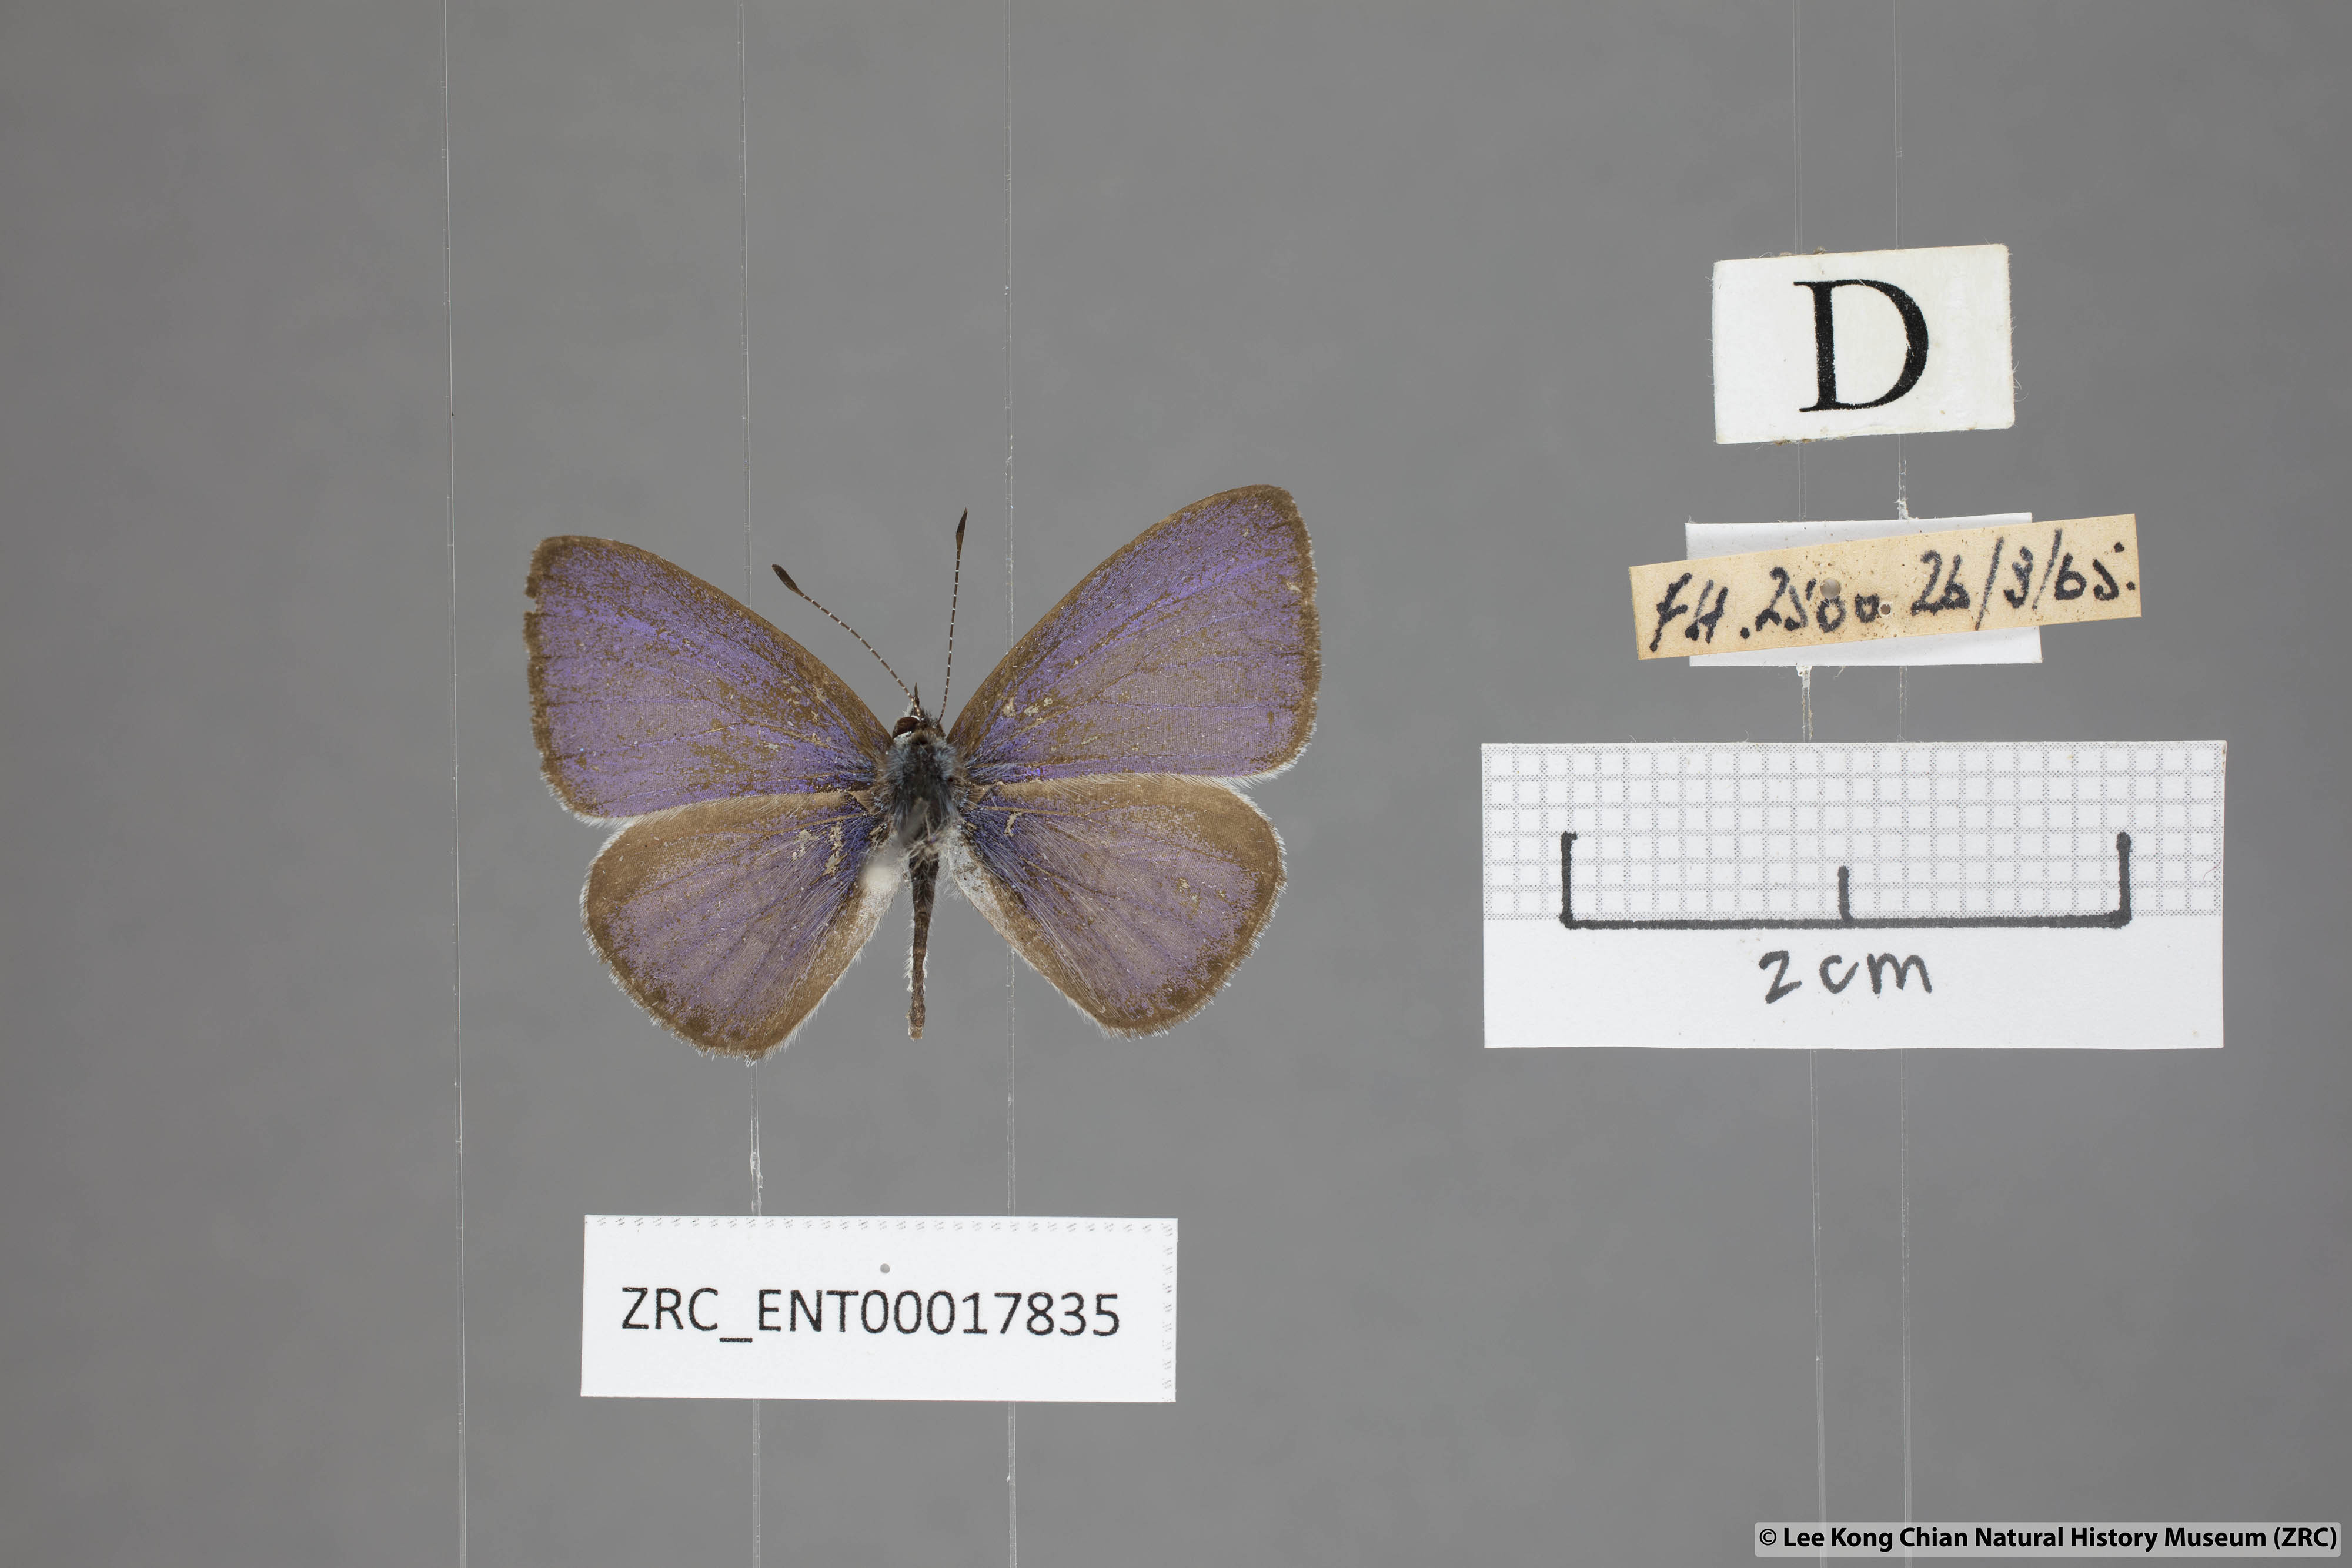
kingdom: Animalia
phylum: Arthropoda
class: Insecta
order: Lepidoptera
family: Lycaenidae
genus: Udara
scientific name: Udara
